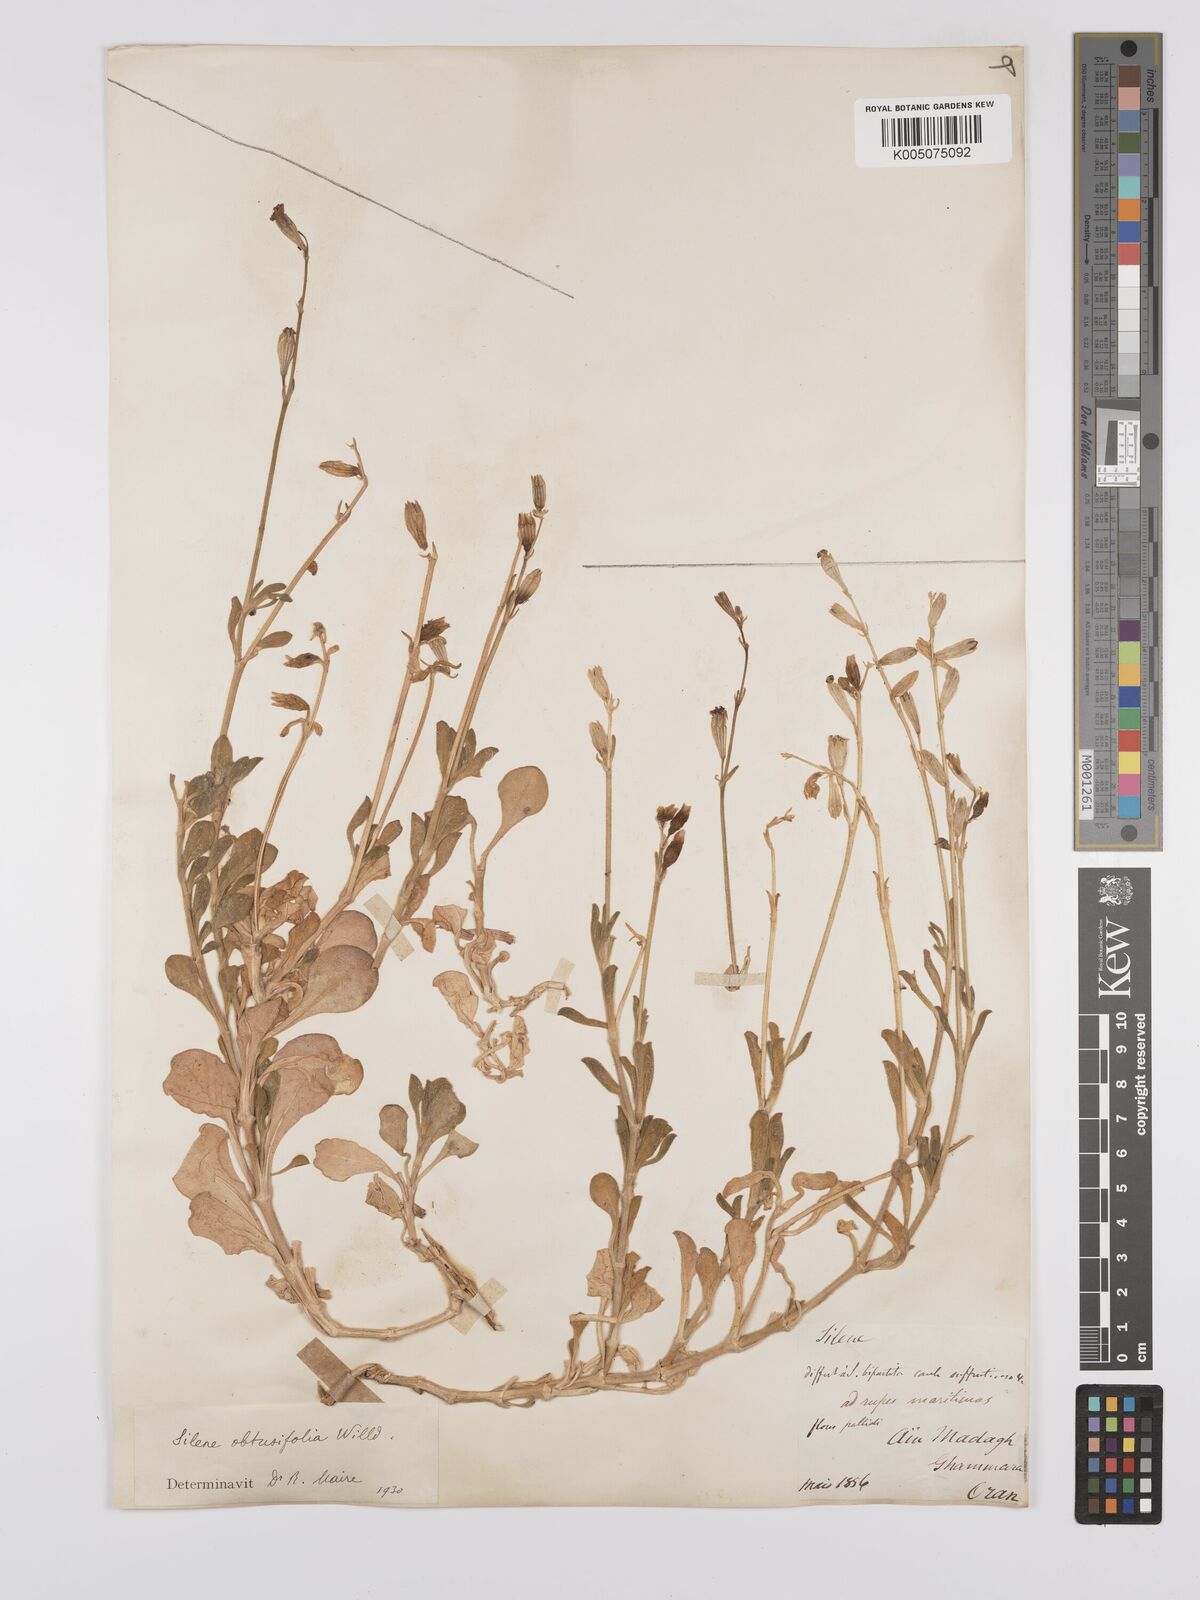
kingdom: Plantae
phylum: Tracheophyta
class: Magnoliopsida
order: Caryophyllales
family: Caryophyllaceae
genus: Silene
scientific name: Silene obtusifolia
